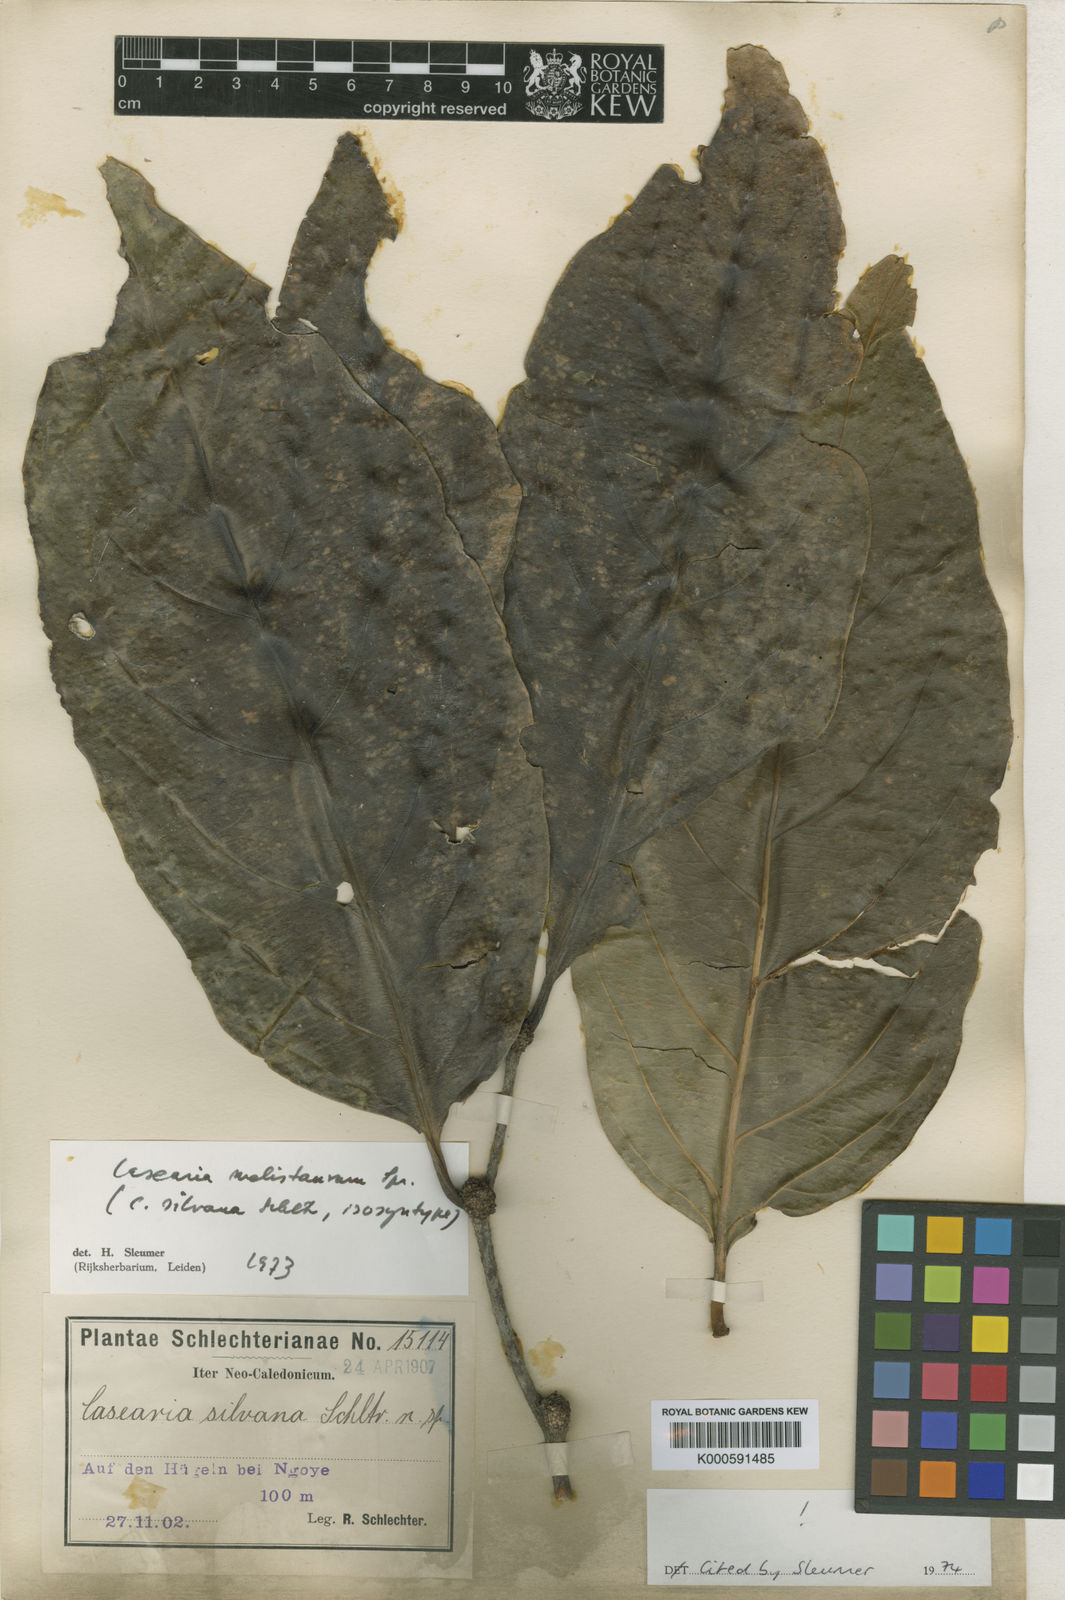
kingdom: Plantae
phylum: Tracheophyta
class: Magnoliopsida
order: Malpighiales
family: Salicaceae
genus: Casearia
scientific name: Casearia silvana
